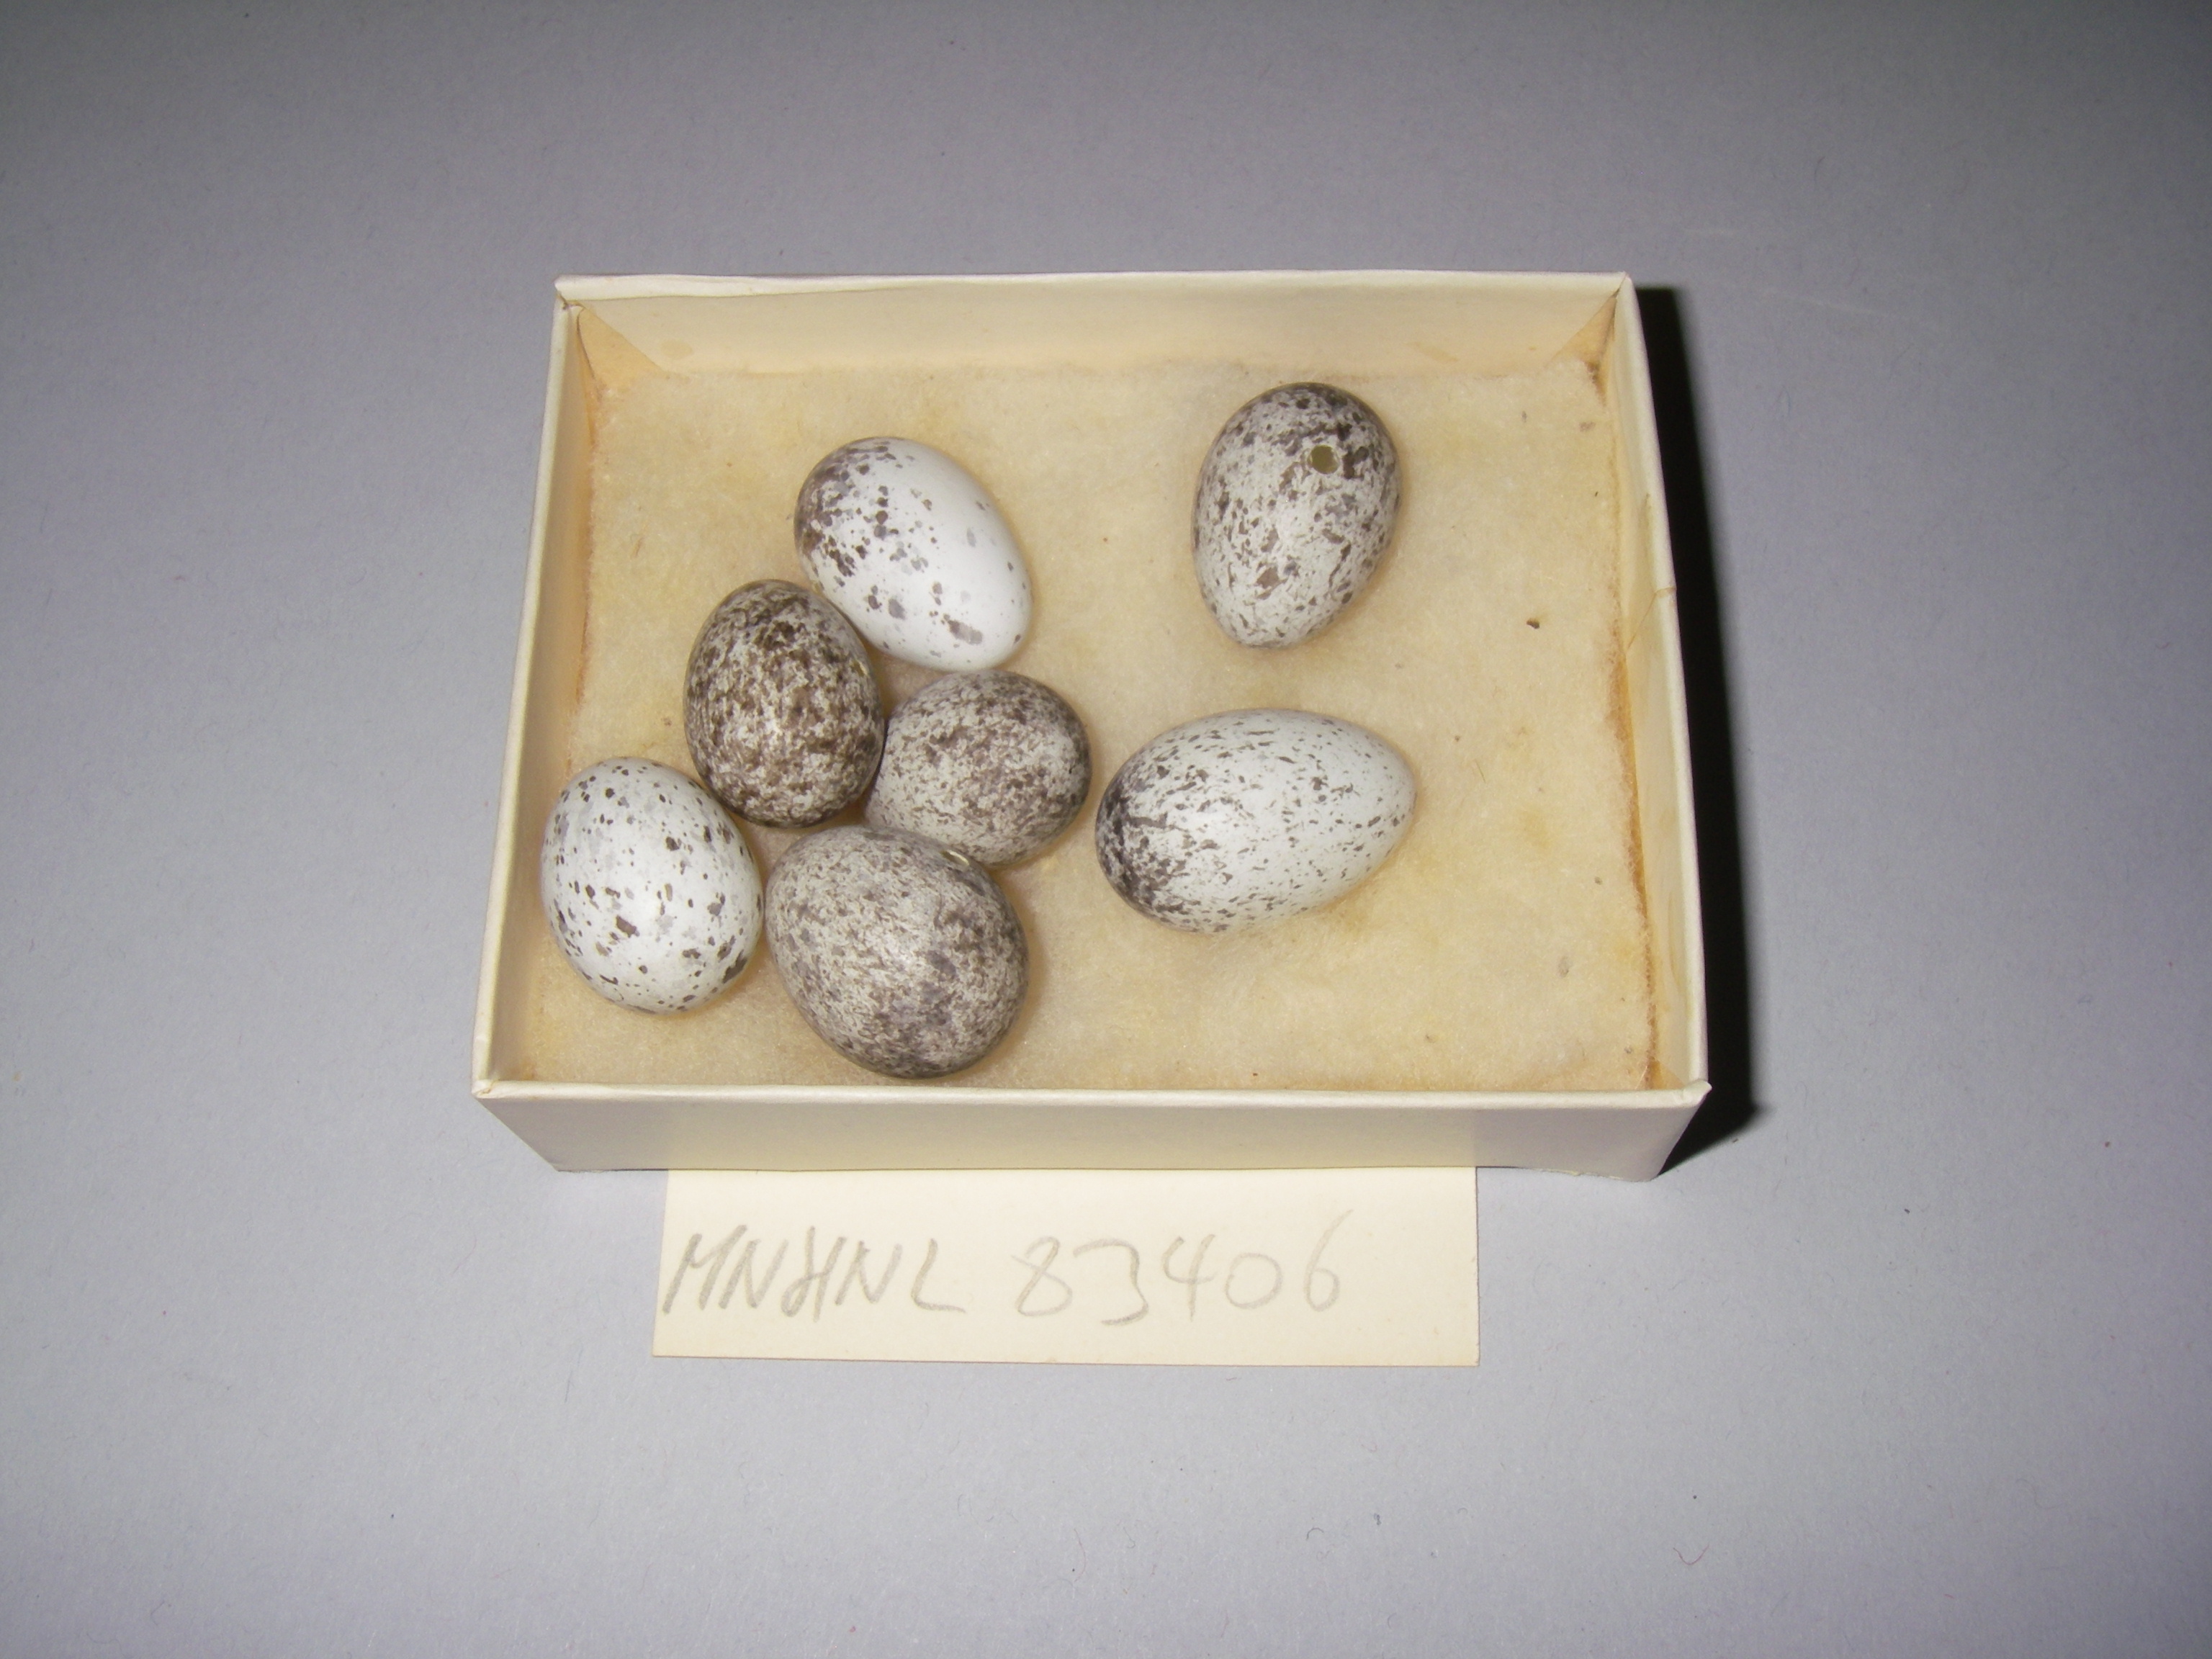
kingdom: Animalia
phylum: Chordata
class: Aves
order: Passeriformes
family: Passeridae
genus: Passer
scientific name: Passer domesticus
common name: House sparrow
